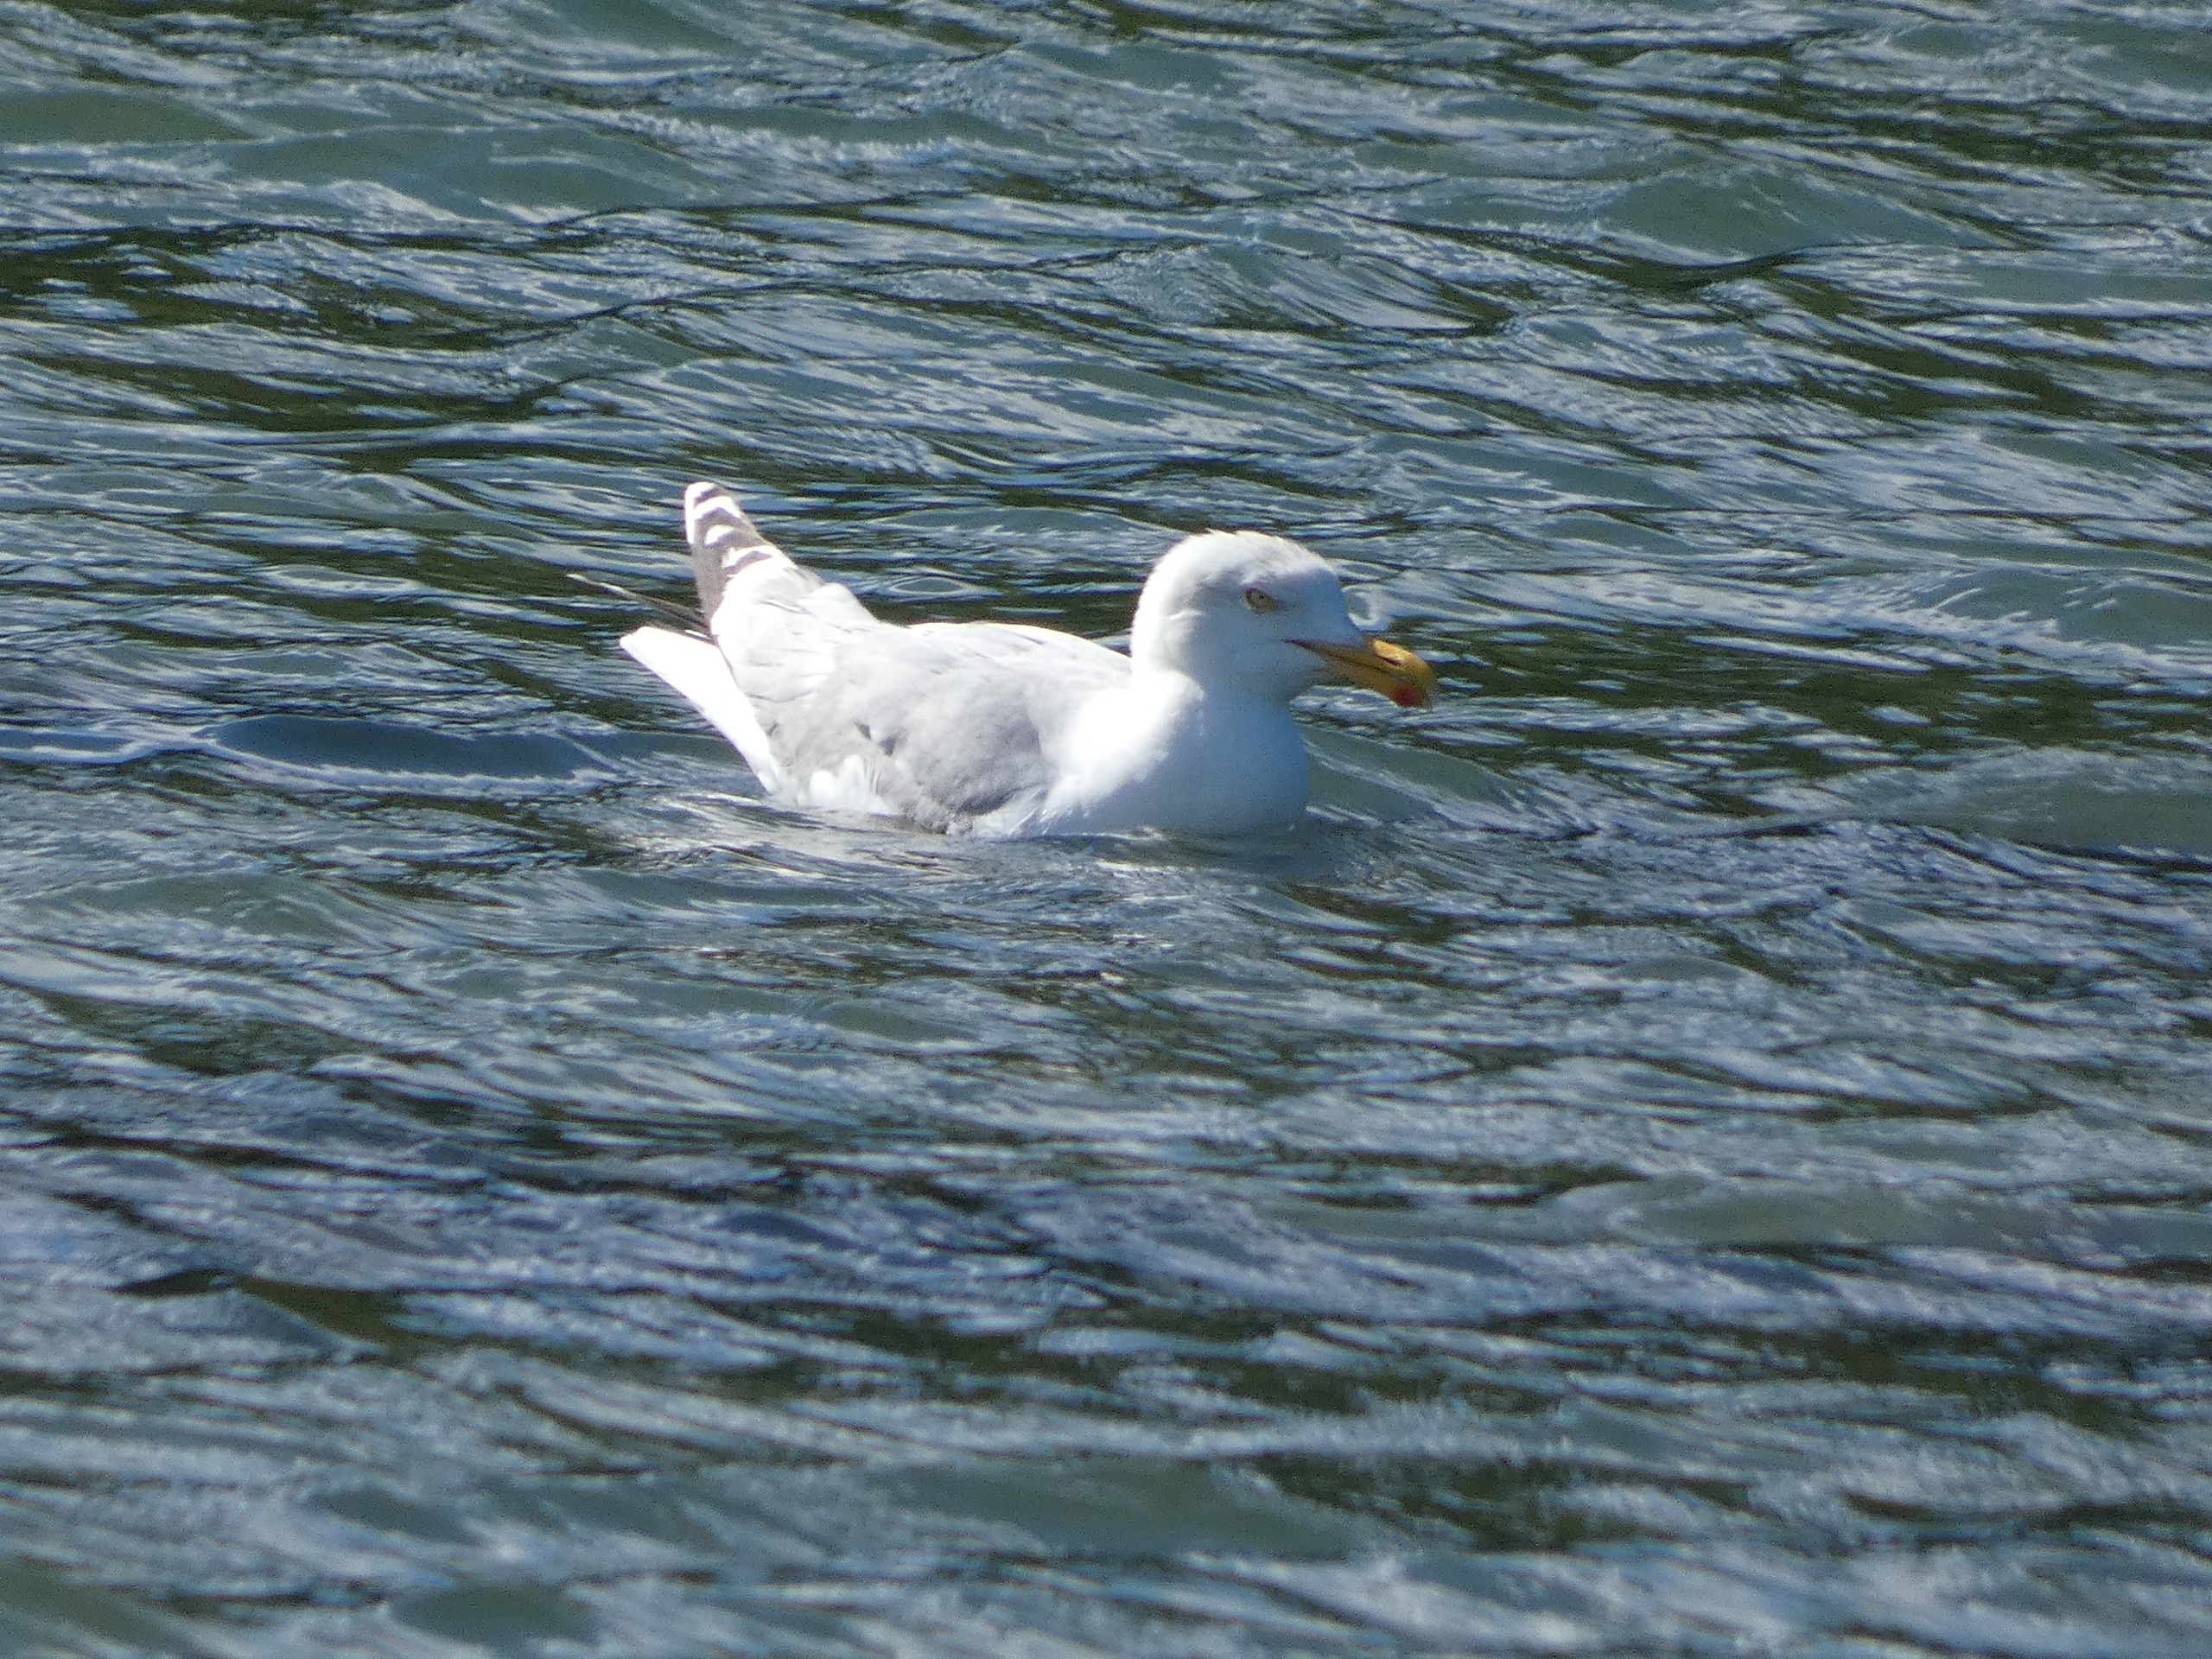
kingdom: Animalia
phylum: Chordata
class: Aves
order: Charadriiformes
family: Laridae
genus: Larus
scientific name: Larus argentatus
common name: Sølvmåge
